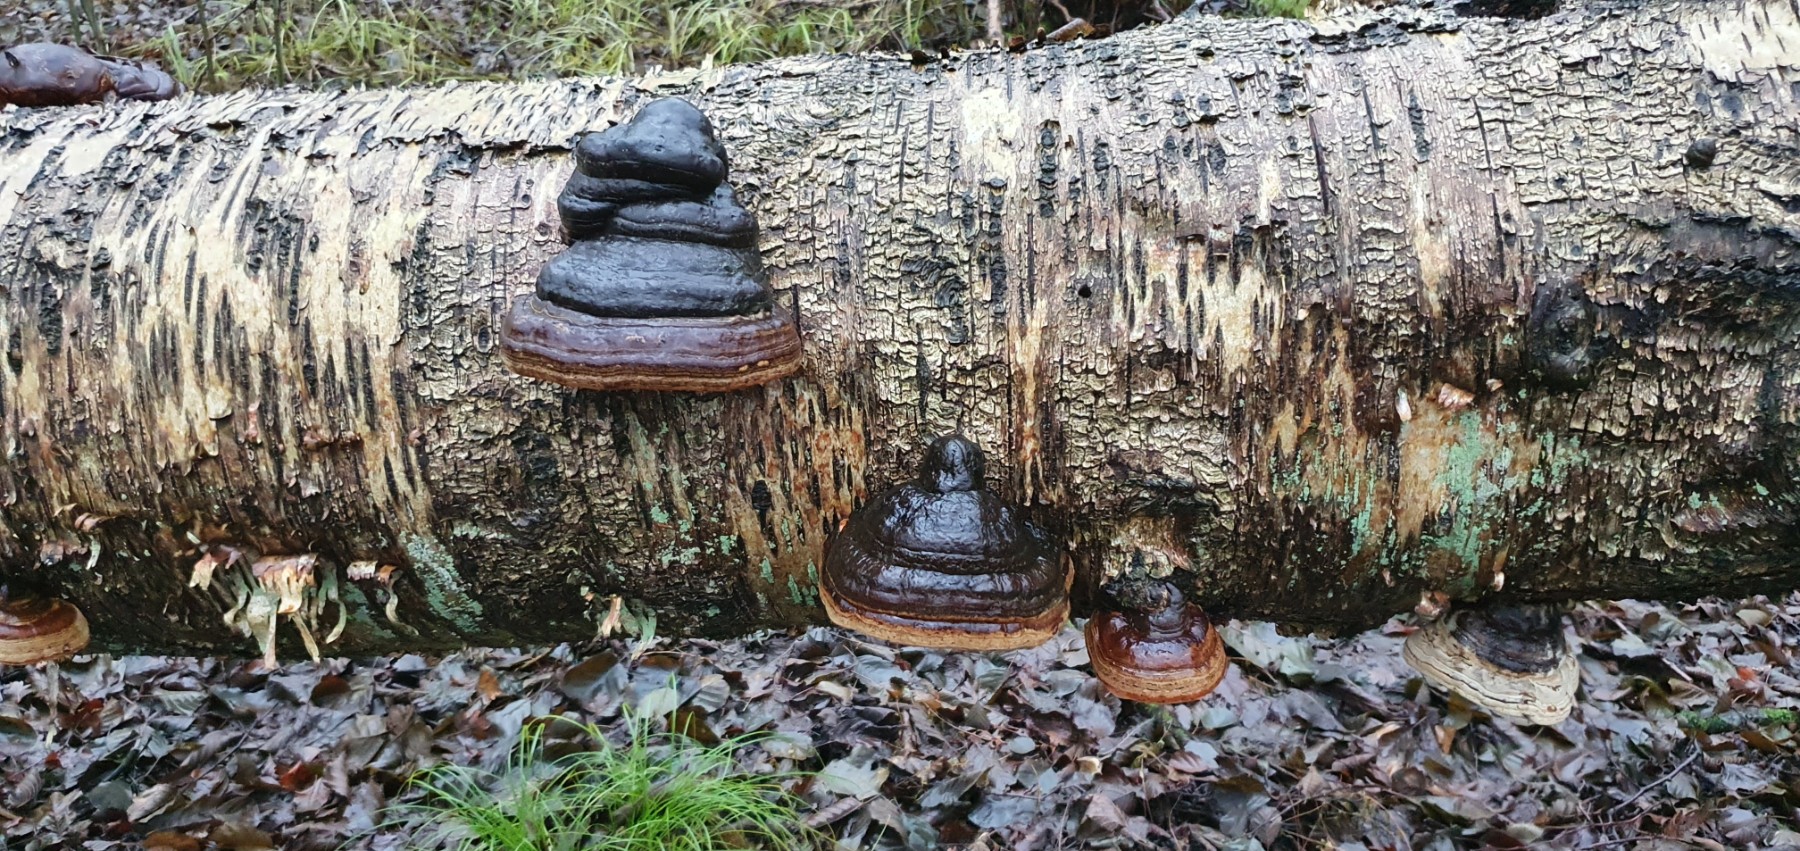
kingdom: Fungi
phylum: Basidiomycota
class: Agaricomycetes
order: Polyporales
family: Polyporaceae
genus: Fomes
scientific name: Fomes fomentarius
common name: tøndersvamp
